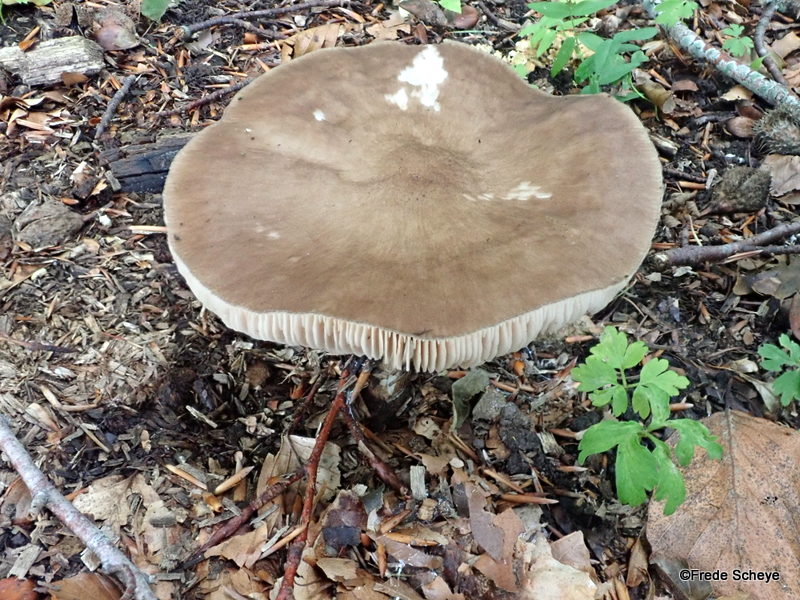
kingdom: Fungi
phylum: Basidiomycota
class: Agaricomycetes
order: Agaricales
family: Pluteaceae
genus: Pluteus
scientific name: Pluteus cervinus
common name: sodfarvet skærmhat
